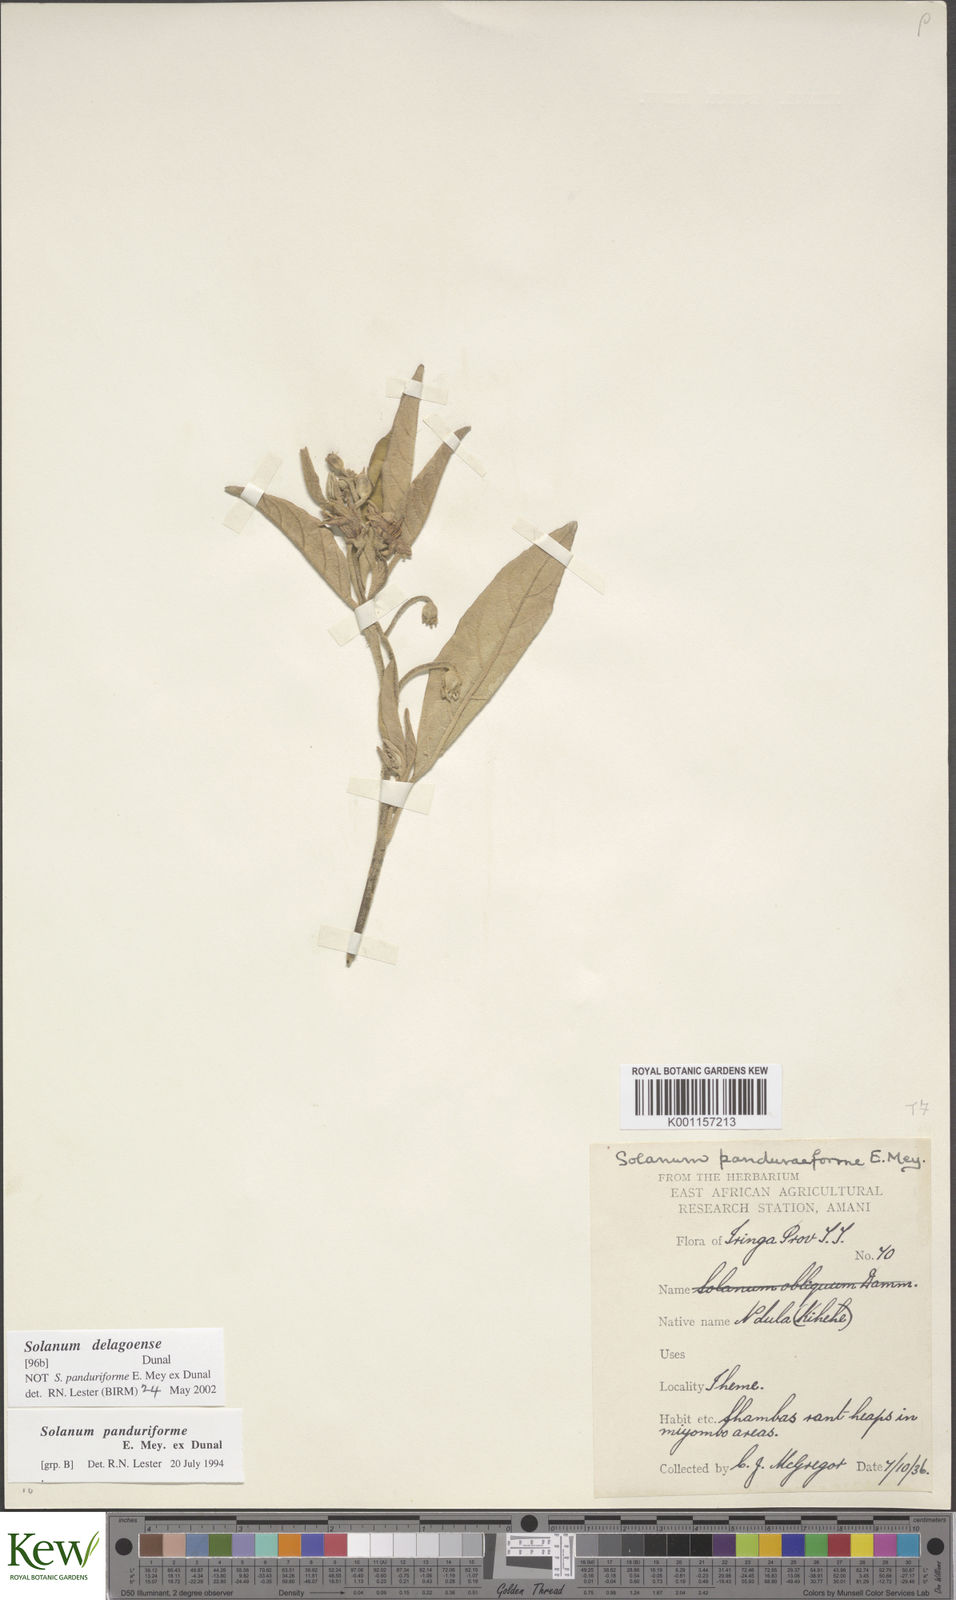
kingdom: Plantae
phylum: Tracheophyta
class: Magnoliopsida
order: Solanales
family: Solanaceae
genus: Solanum
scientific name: Solanum campylacanthum
